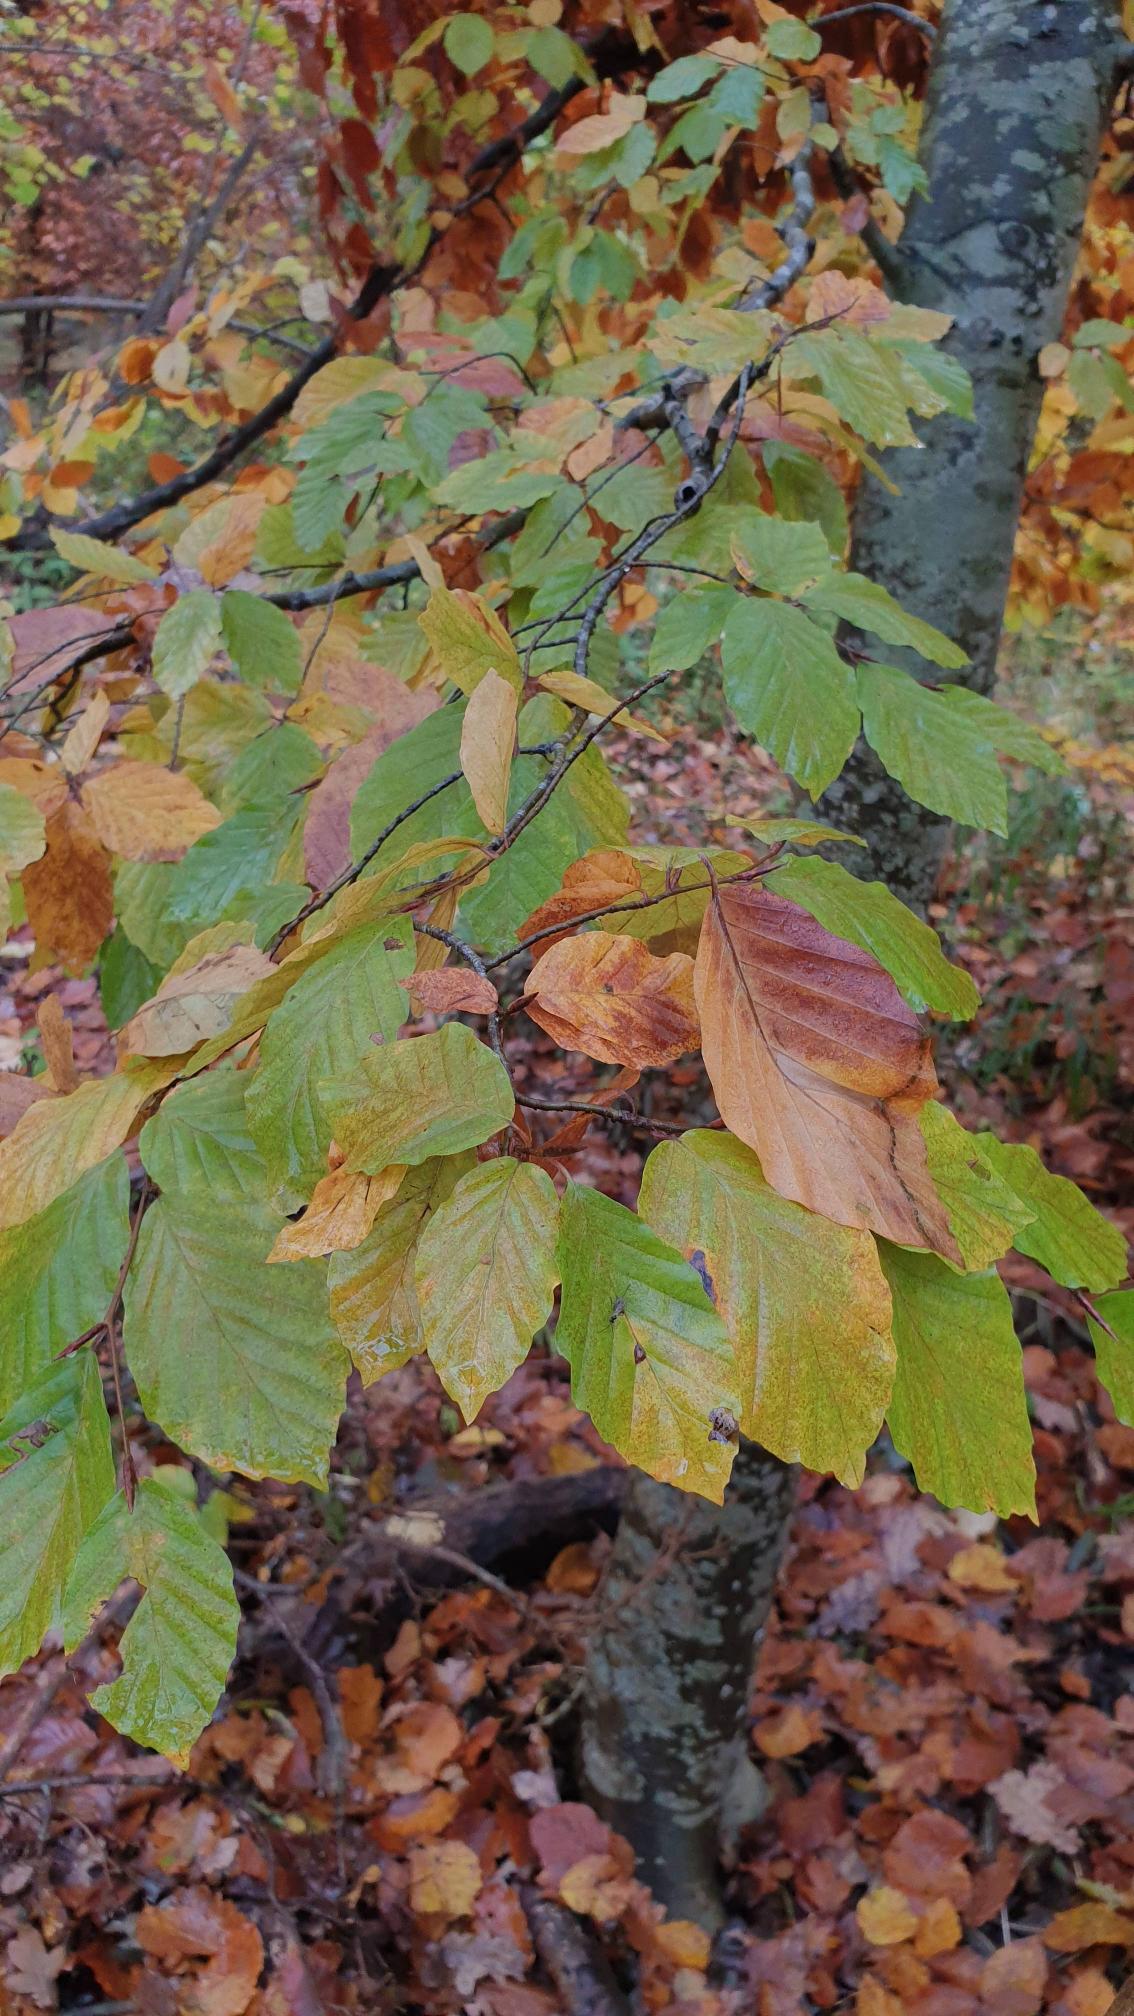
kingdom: Plantae
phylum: Tracheophyta
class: Magnoliopsida
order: Fagales
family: Fagaceae
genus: Fagus
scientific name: Fagus sylvatica
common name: Bøg
